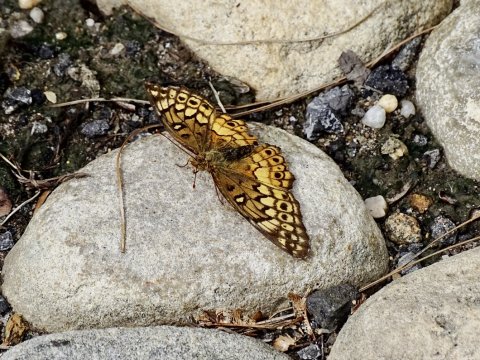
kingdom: Animalia
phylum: Arthropoda
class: Insecta
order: Lepidoptera
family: Nymphalidae
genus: Euptoieta
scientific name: Euptoieta claudia
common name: Variegated Fritillary
